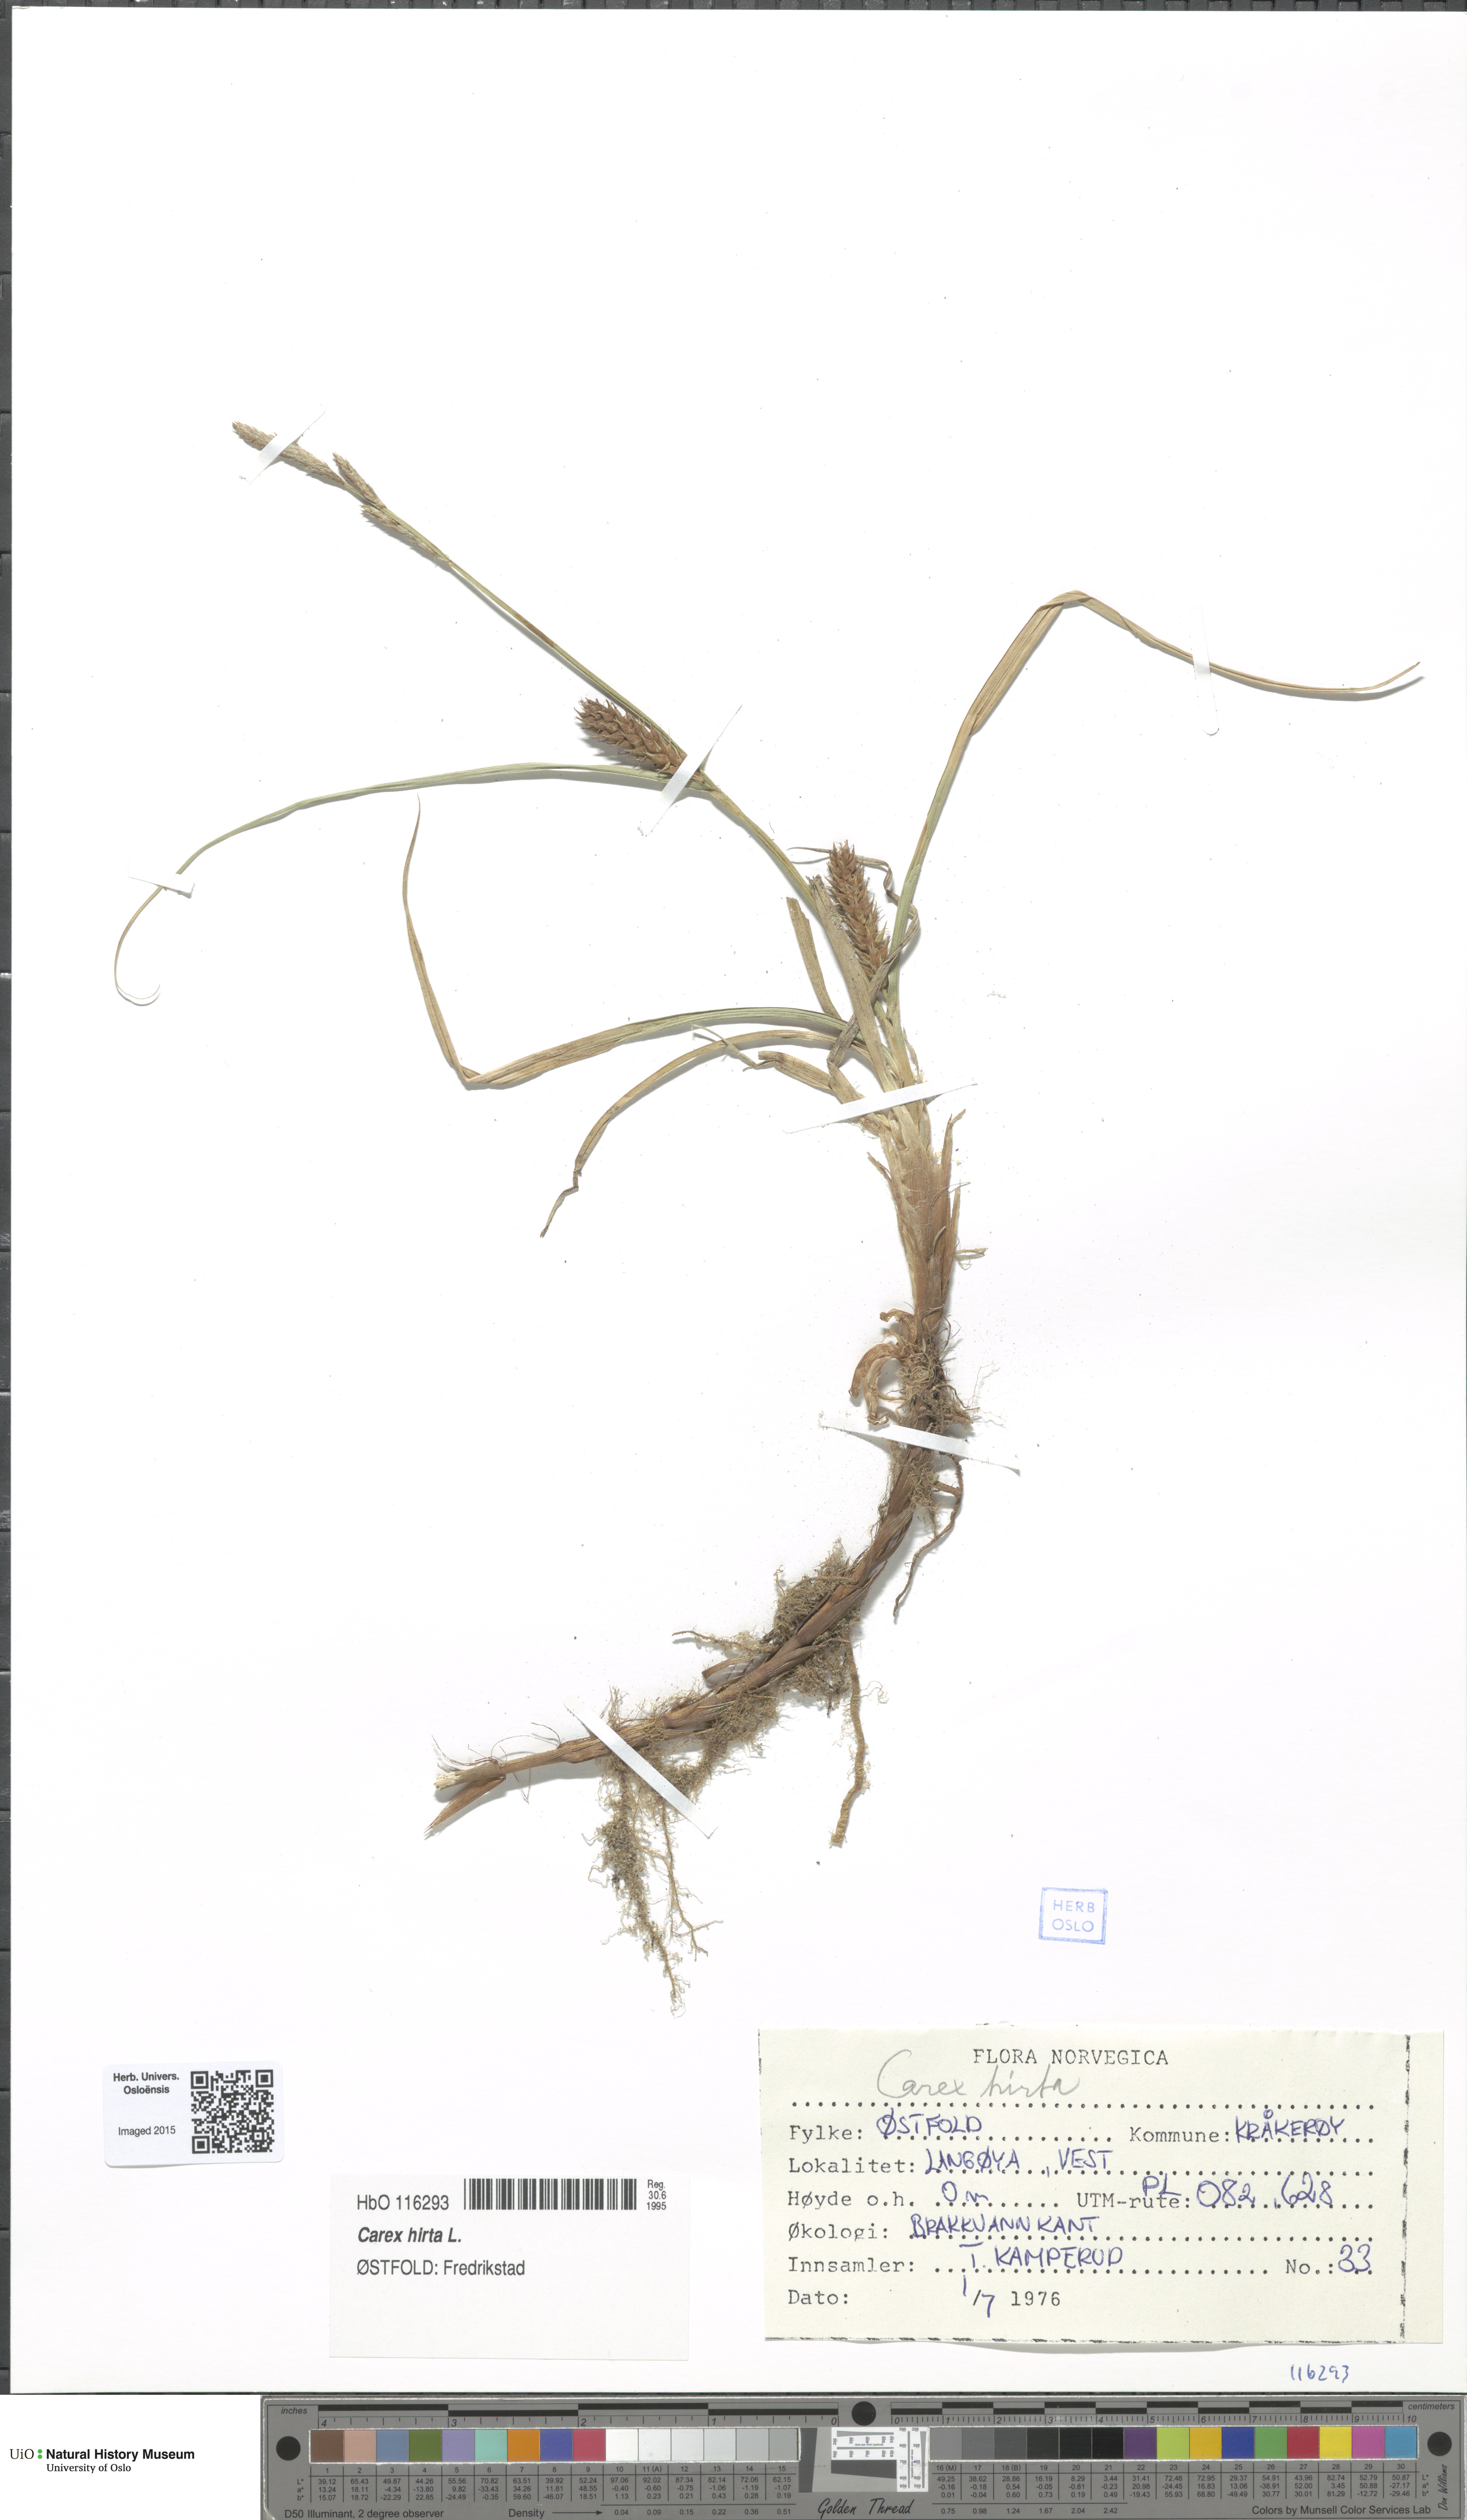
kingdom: Plantae
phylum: Tracheophyta
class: Liliopsida
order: Poales
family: Cyperaceae
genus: Carex
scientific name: Carex hirta
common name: Hairy sedge
